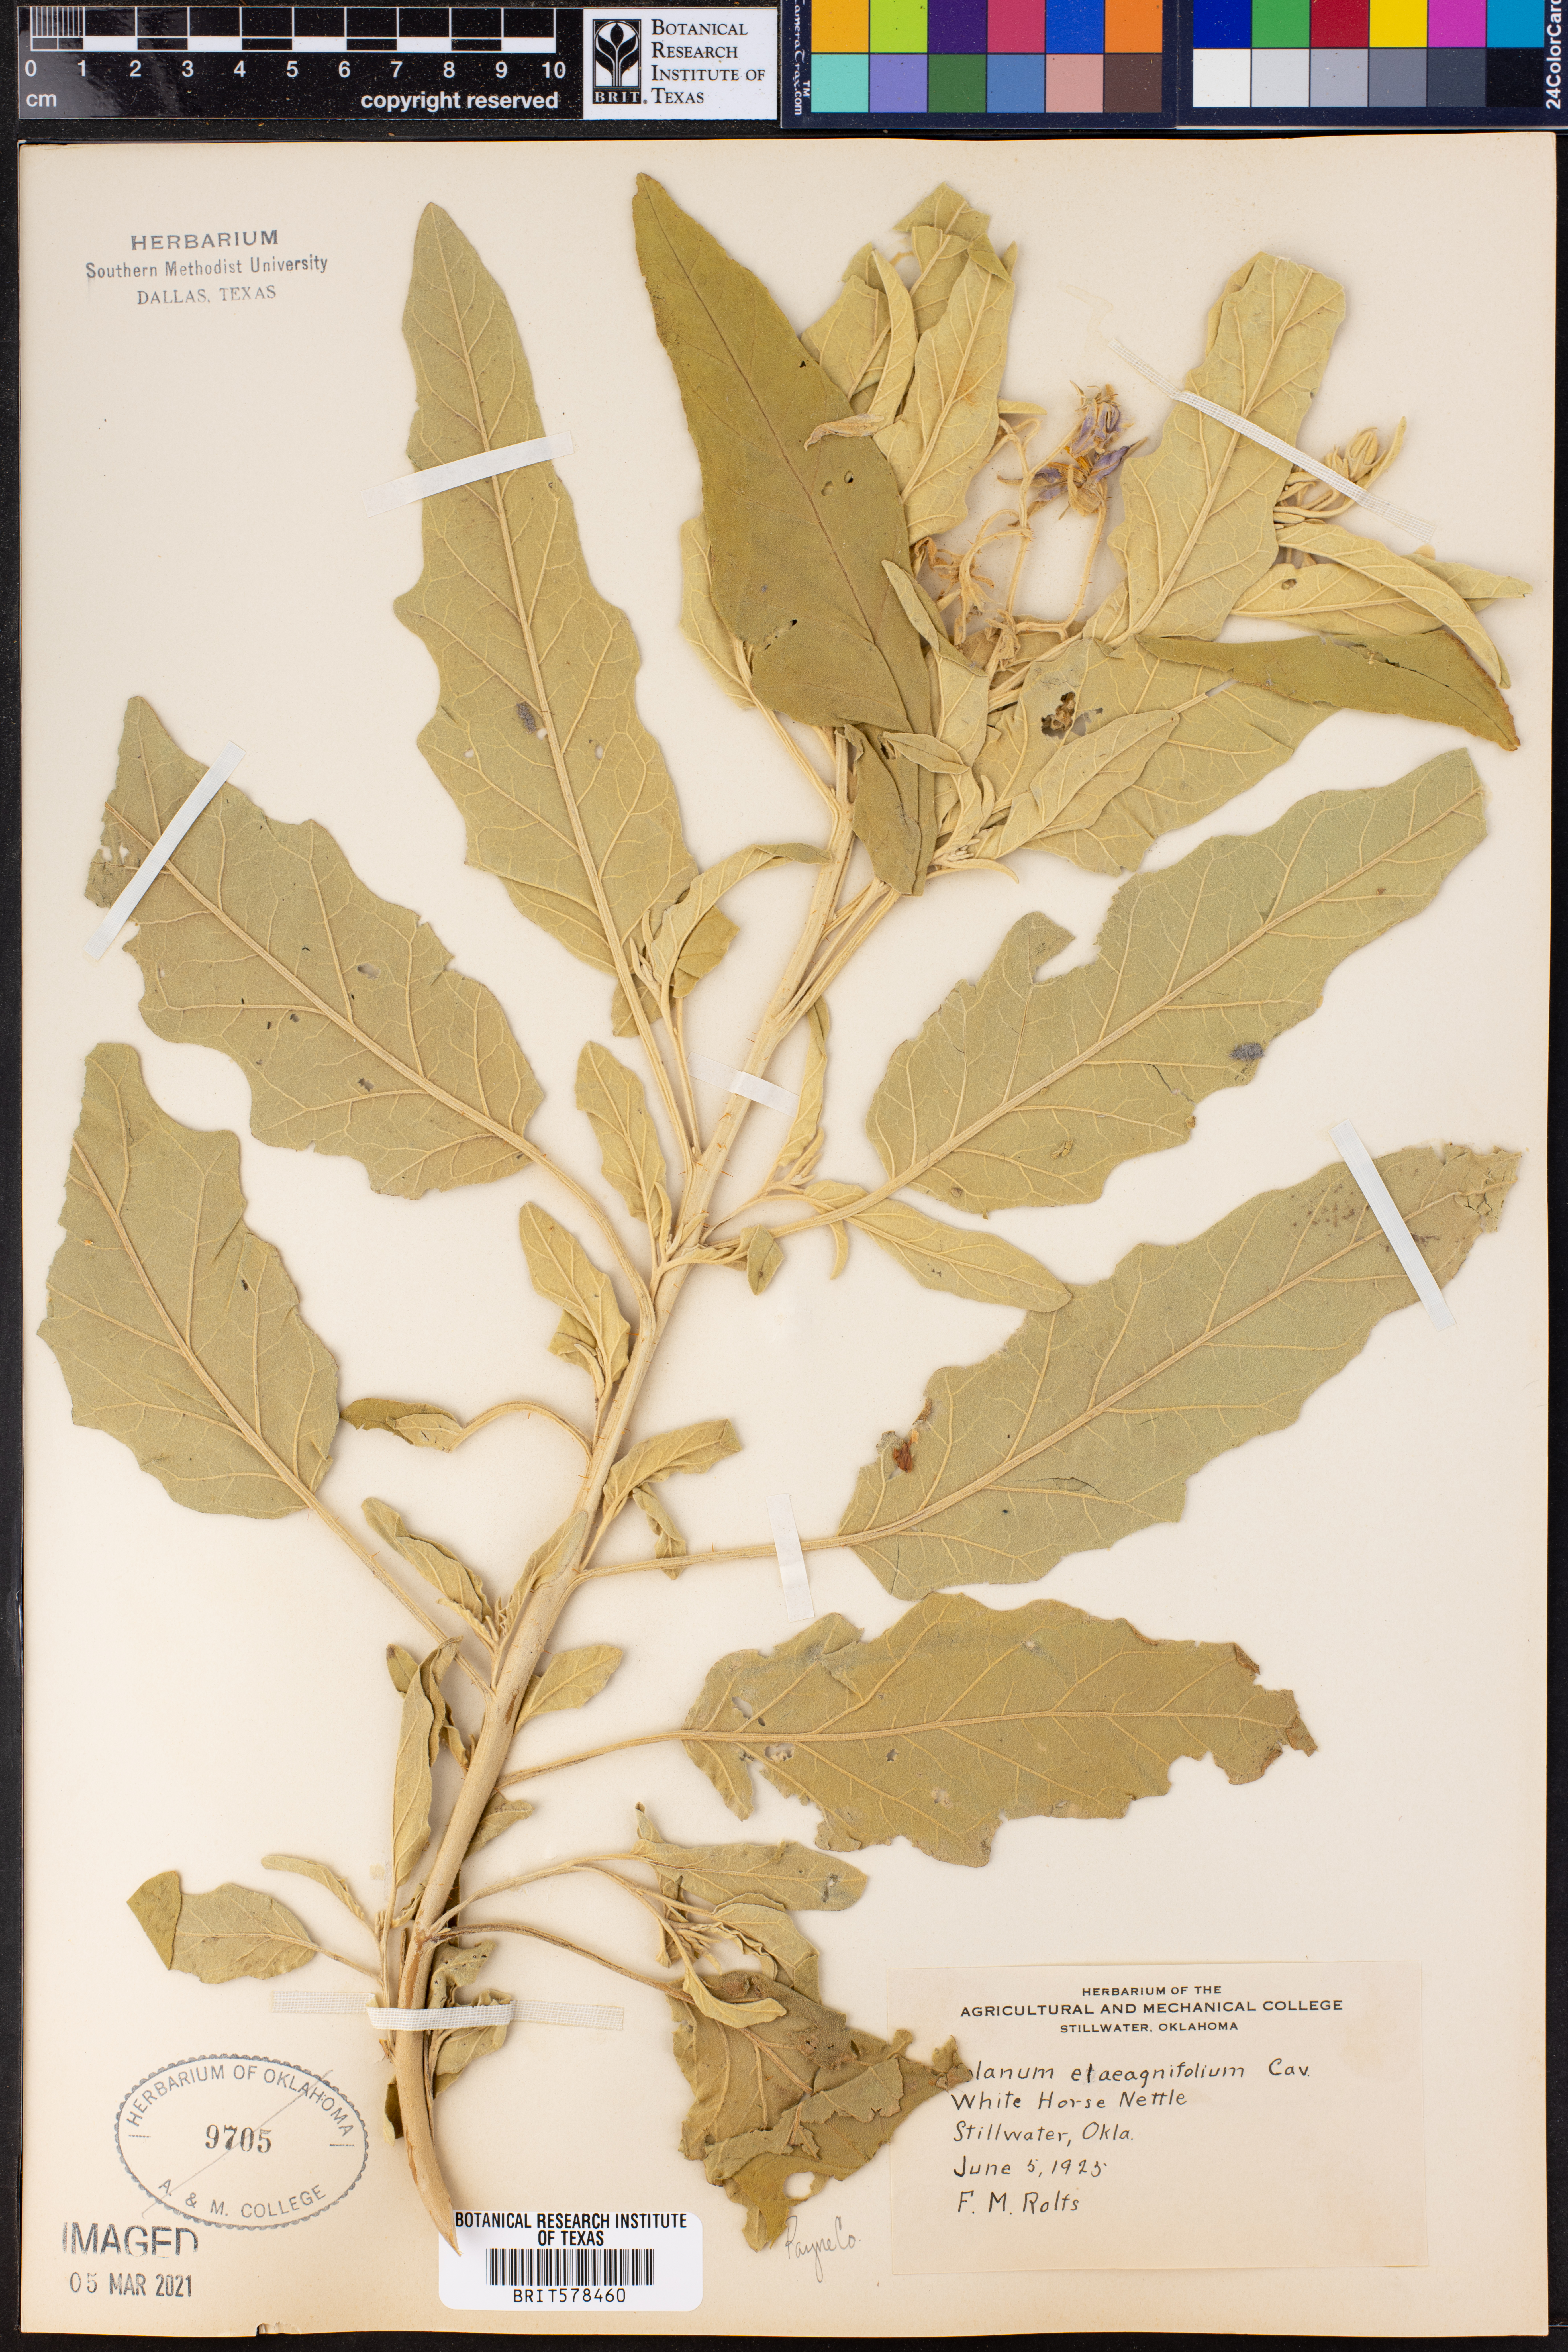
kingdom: Plantae
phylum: Tracheophyta
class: Magnoliopsida
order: Solanales
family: Solanaceae
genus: Solanum
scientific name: Solanum elaeagnifolium
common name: Silverleaf nightshade
